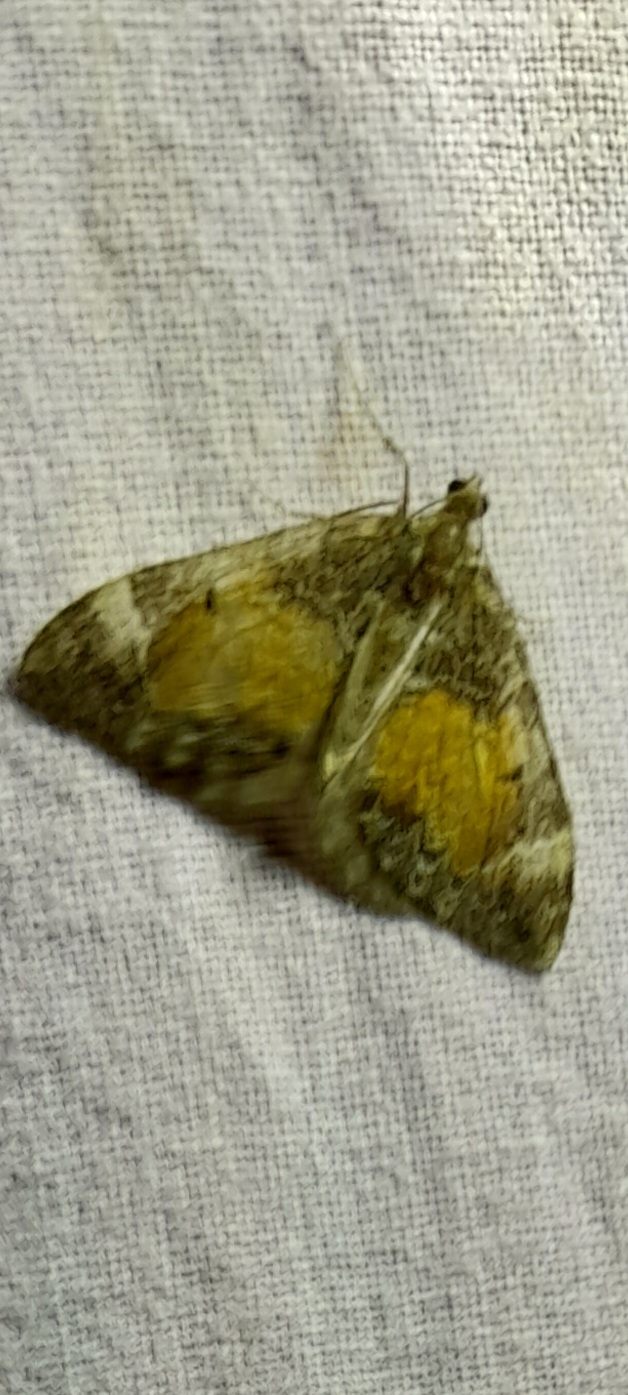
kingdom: Animalia
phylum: Arthropoda
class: Insecta
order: Lepidoptera
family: Geometridae
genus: Dysstroma
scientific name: Dysstroma truncata
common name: Jordbær-bladmåler
